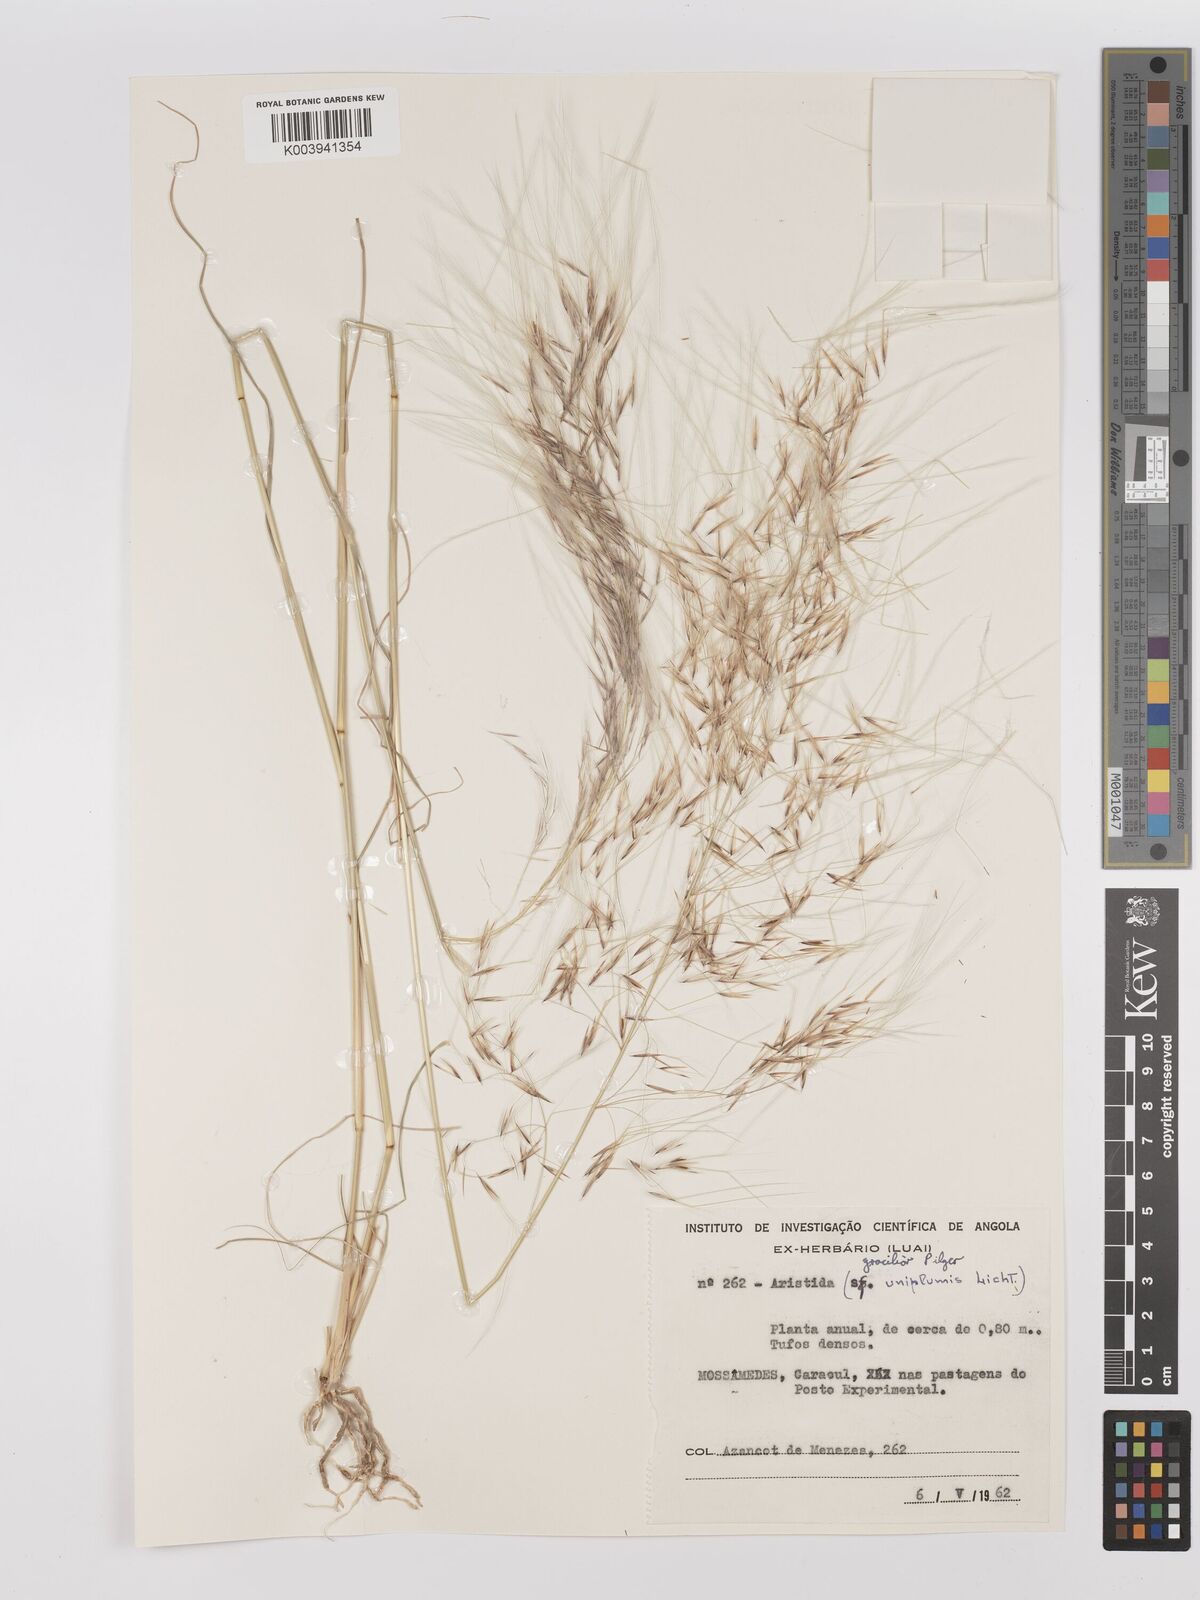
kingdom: Plantae
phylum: Tracheophyta
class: Liliopsida
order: Poales
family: Poaceae
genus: Stipagrostis
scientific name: Stipagrostis hirtigluma
